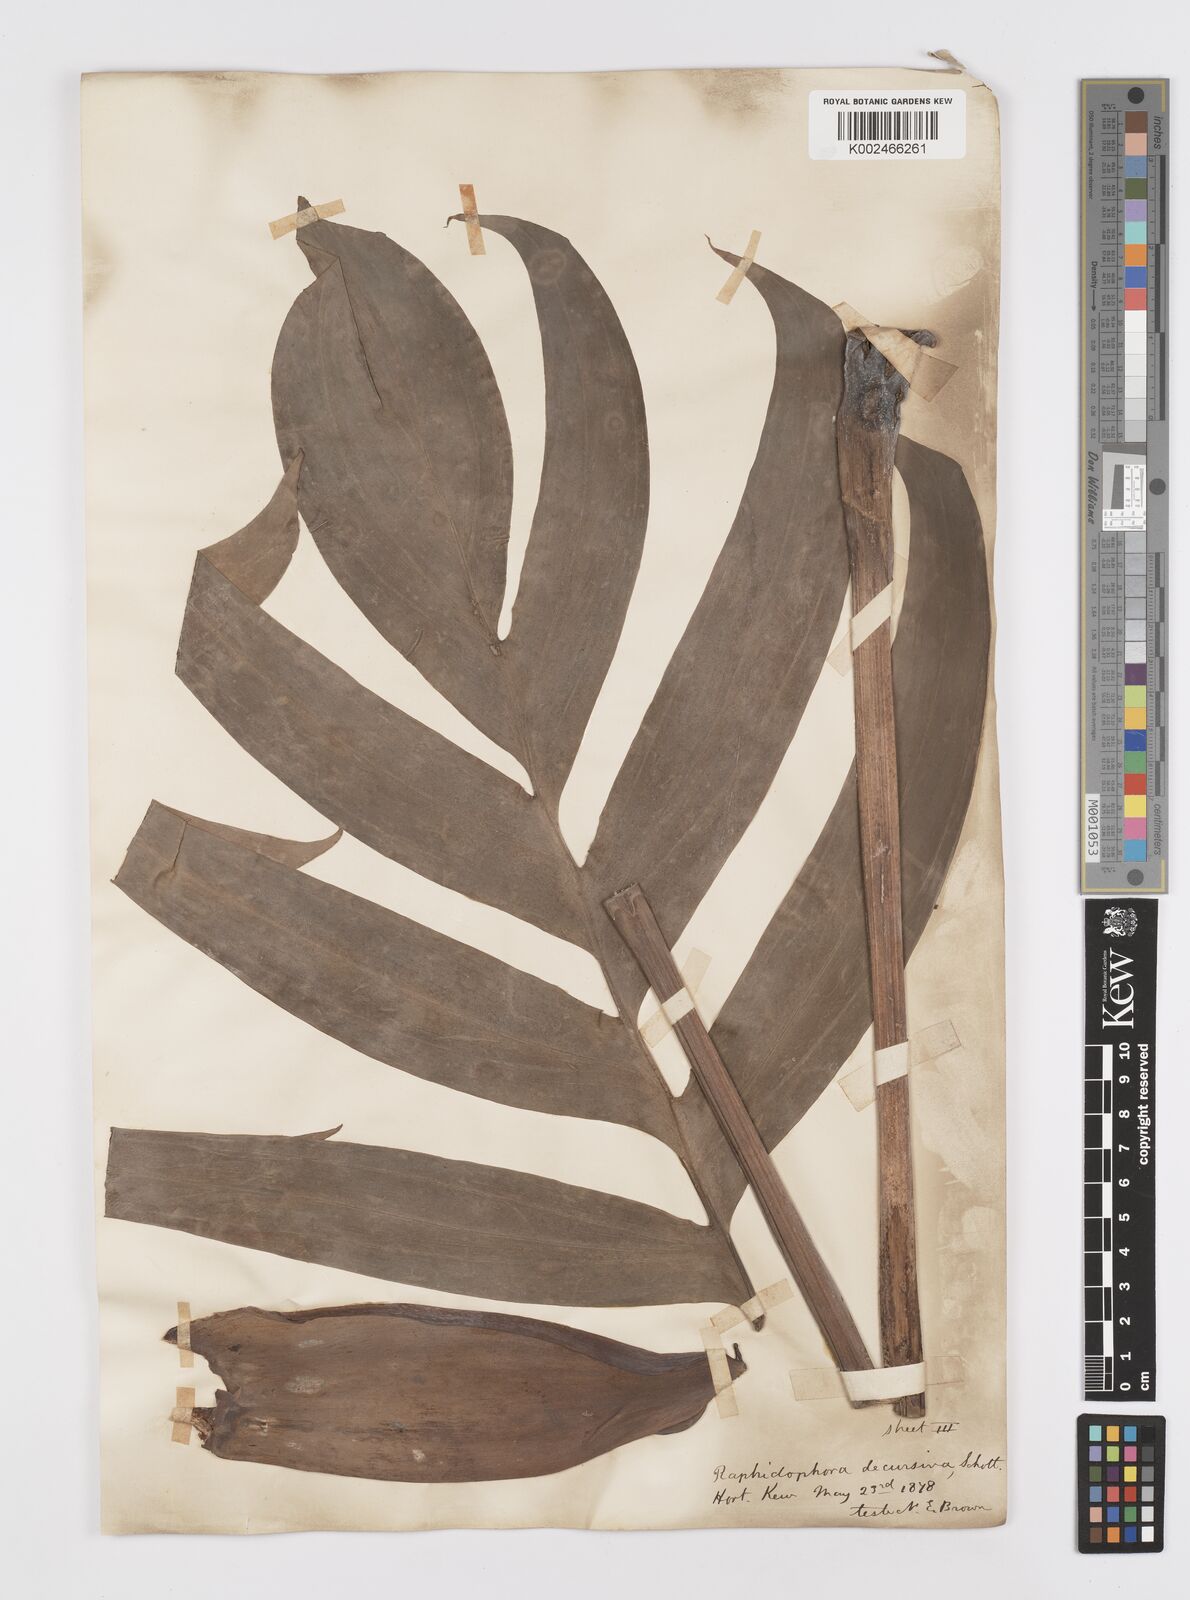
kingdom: Plantae
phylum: Tracheophyta
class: Liliopsida
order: Alismatales
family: Araceae
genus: Rhaphidophora
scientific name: Rhaphidophora decursiva
